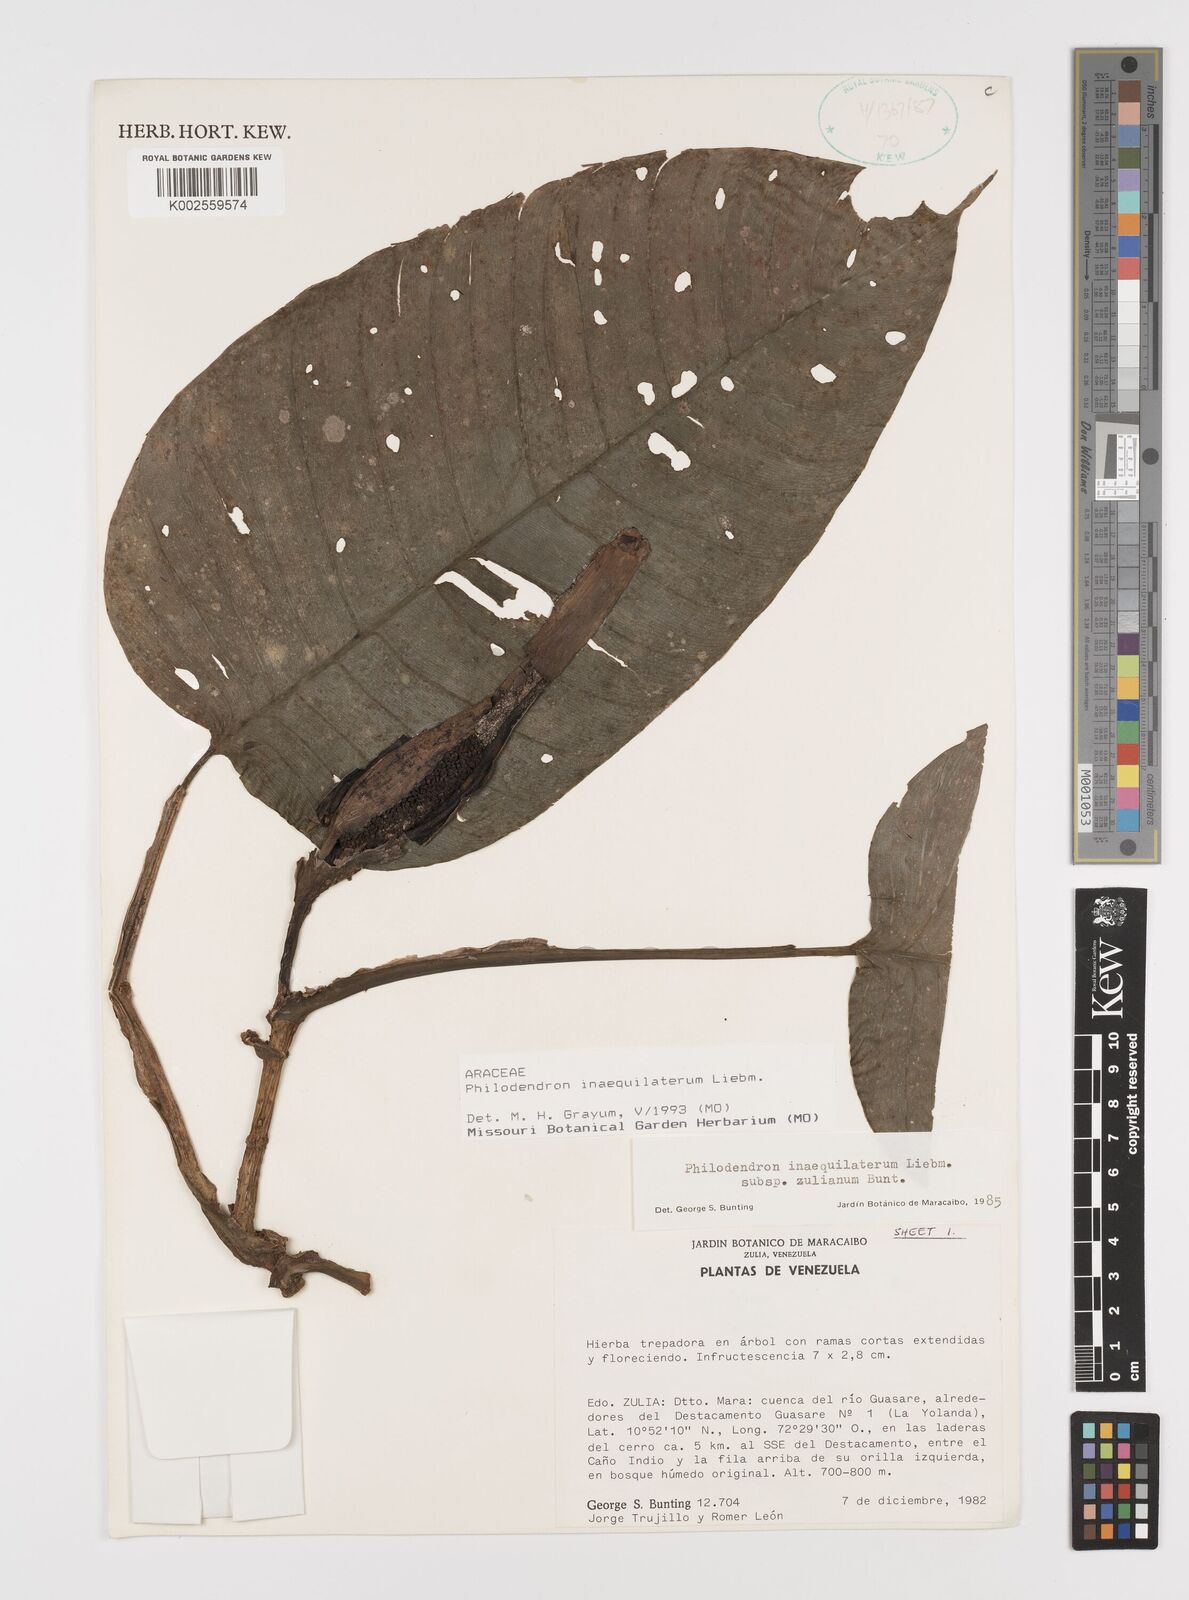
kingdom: Plantae
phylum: Tracheophyta
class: Liliopsida
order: Alismatales
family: Araceae
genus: Philodendron
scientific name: Philodendron inaequilaterum
